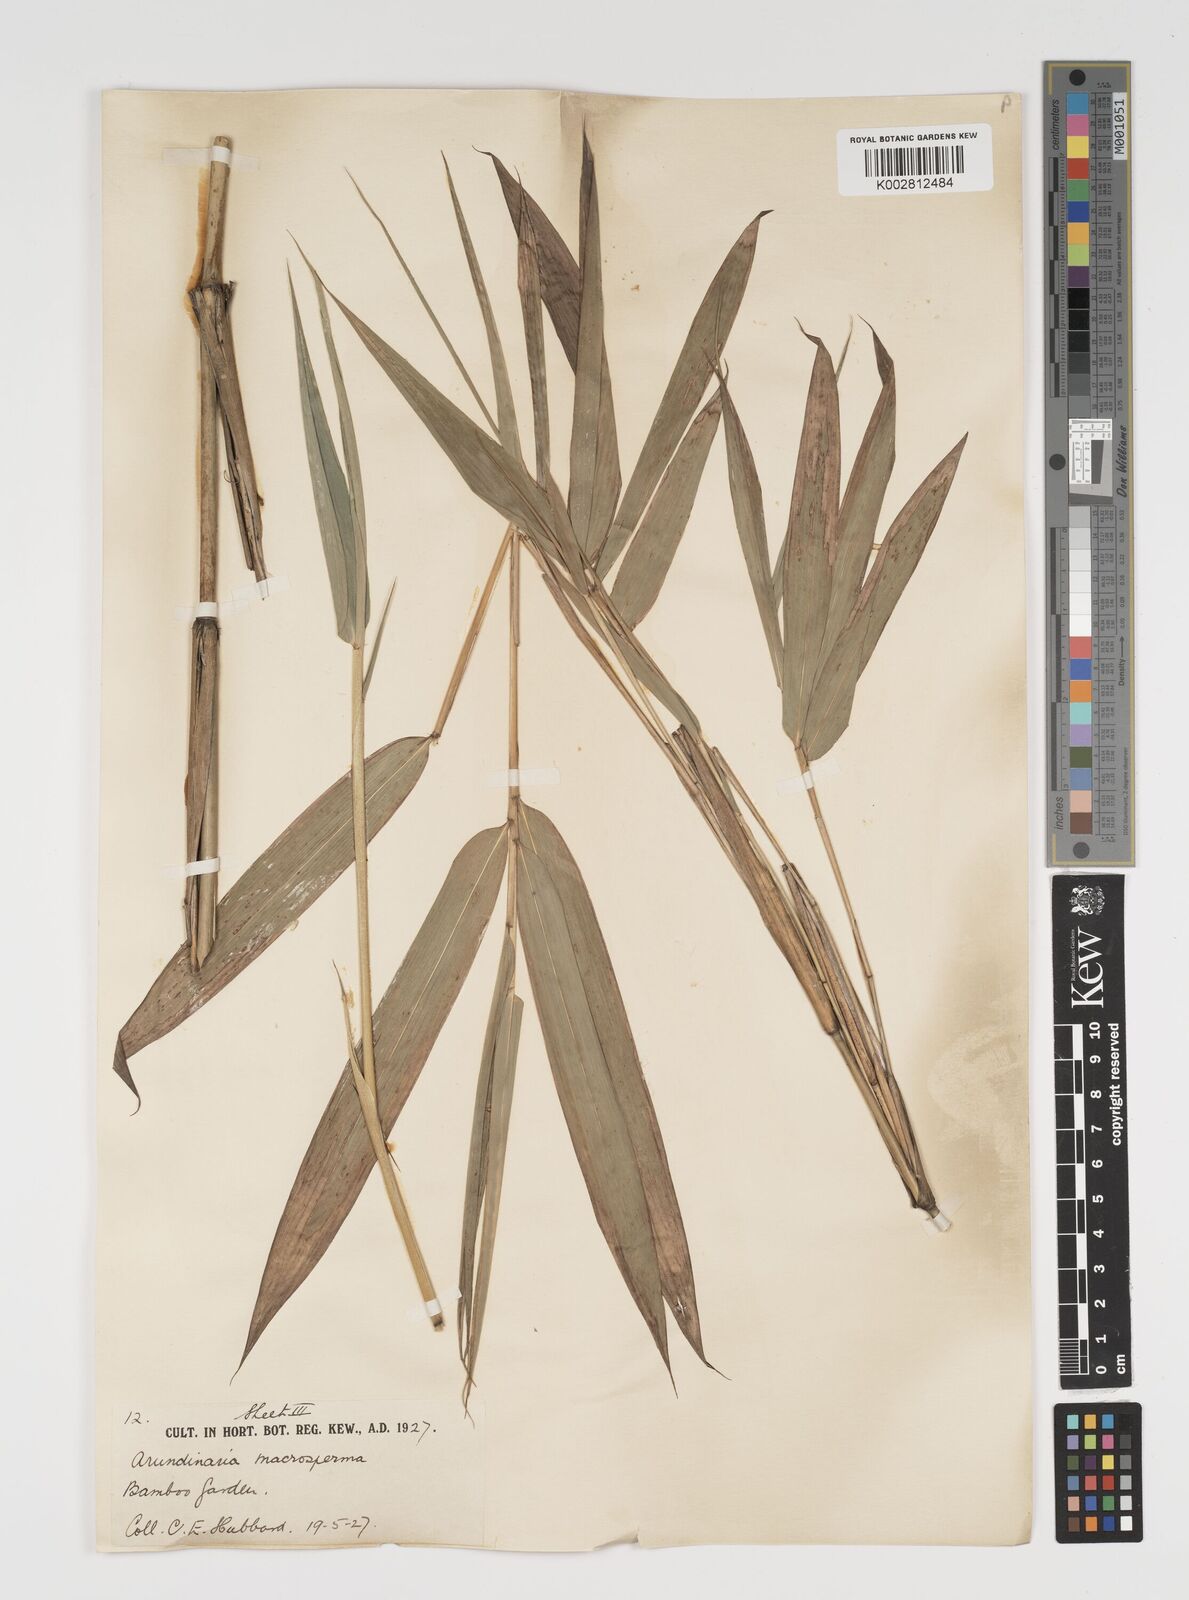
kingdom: Plantae
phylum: Tracheophyta
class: Liliopsida
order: Poales
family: Poaceae
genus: Pseudosasa
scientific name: Pseudosasa amabilis
